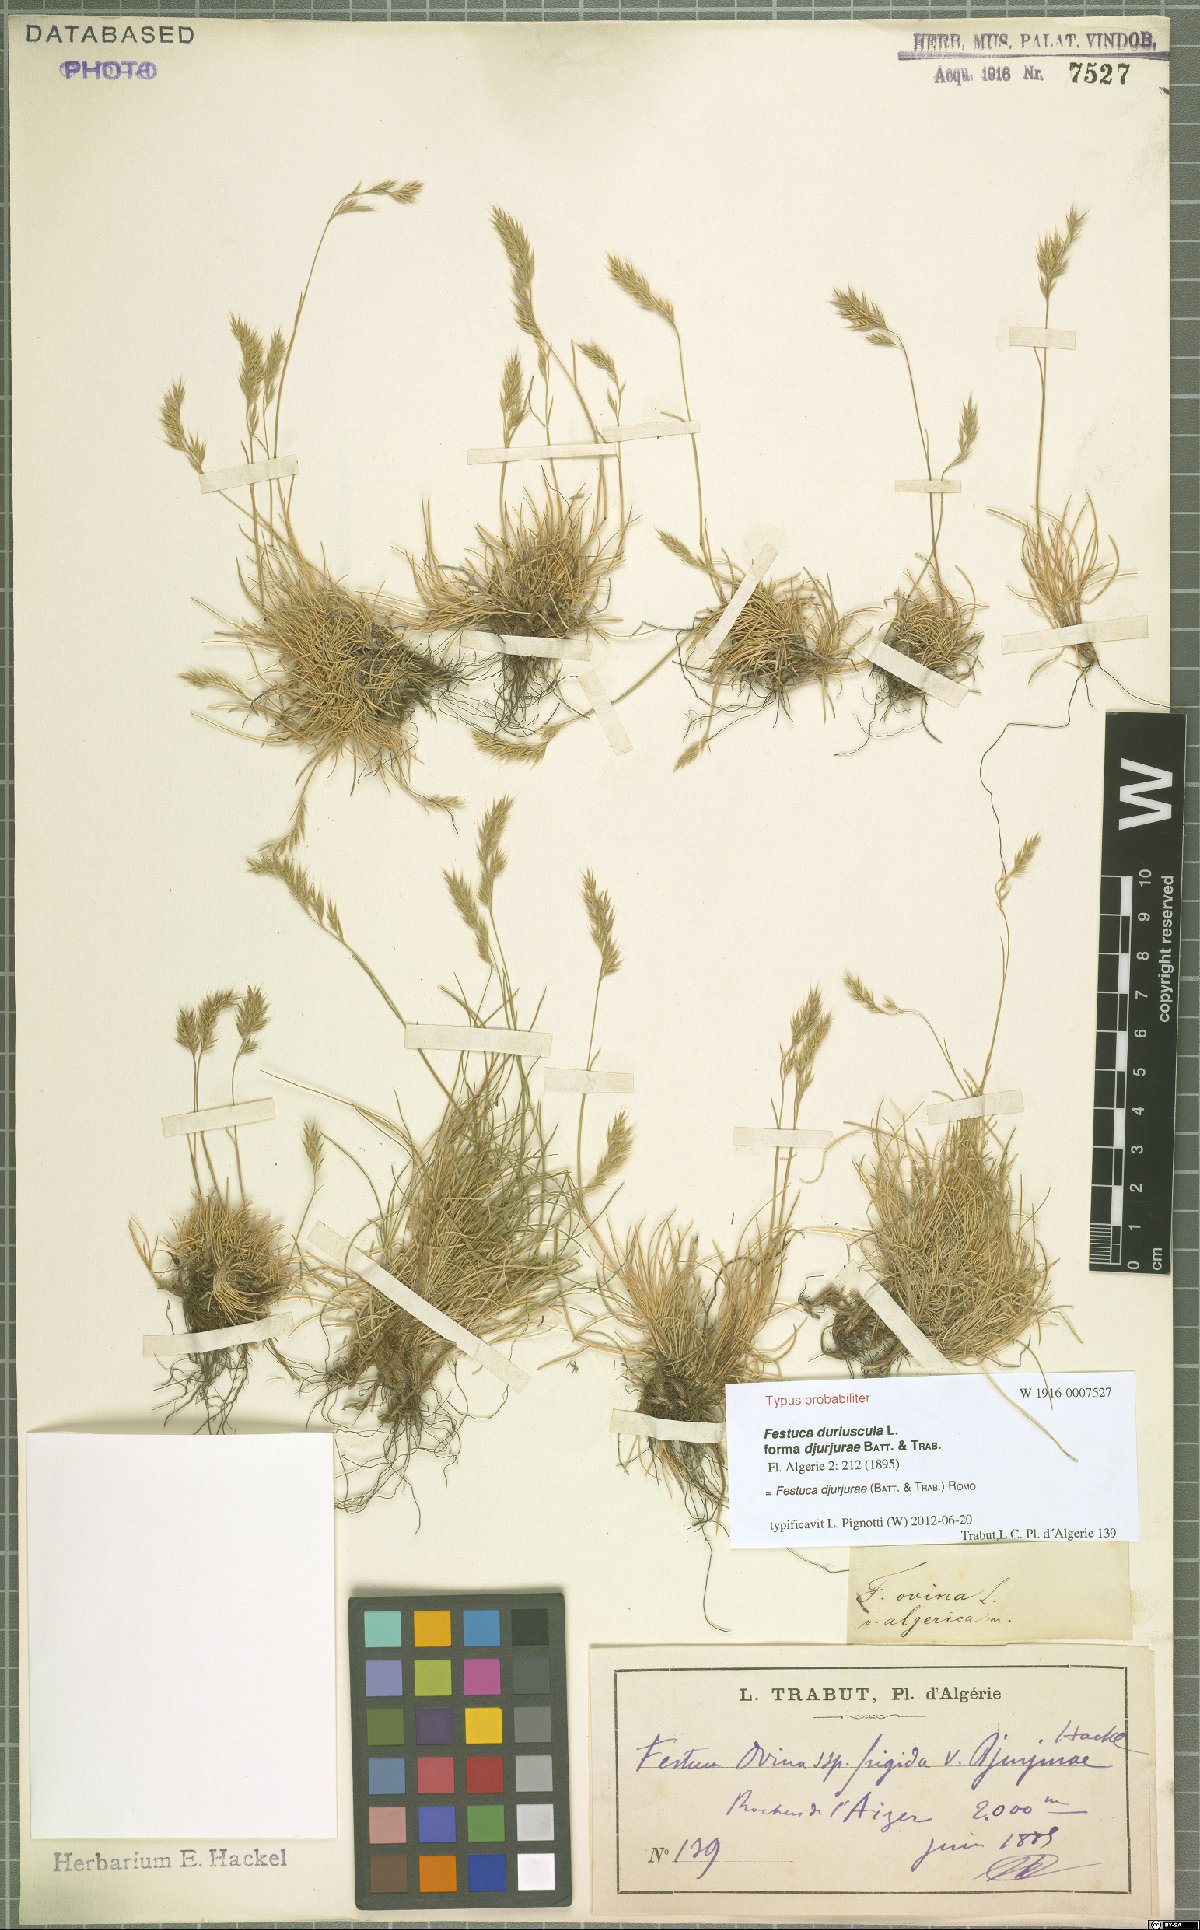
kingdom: Plantae
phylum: Tracheophyta
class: Liliopsida
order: Poales
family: Poaceae
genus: Festuca
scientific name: Festuca djurdjurae
